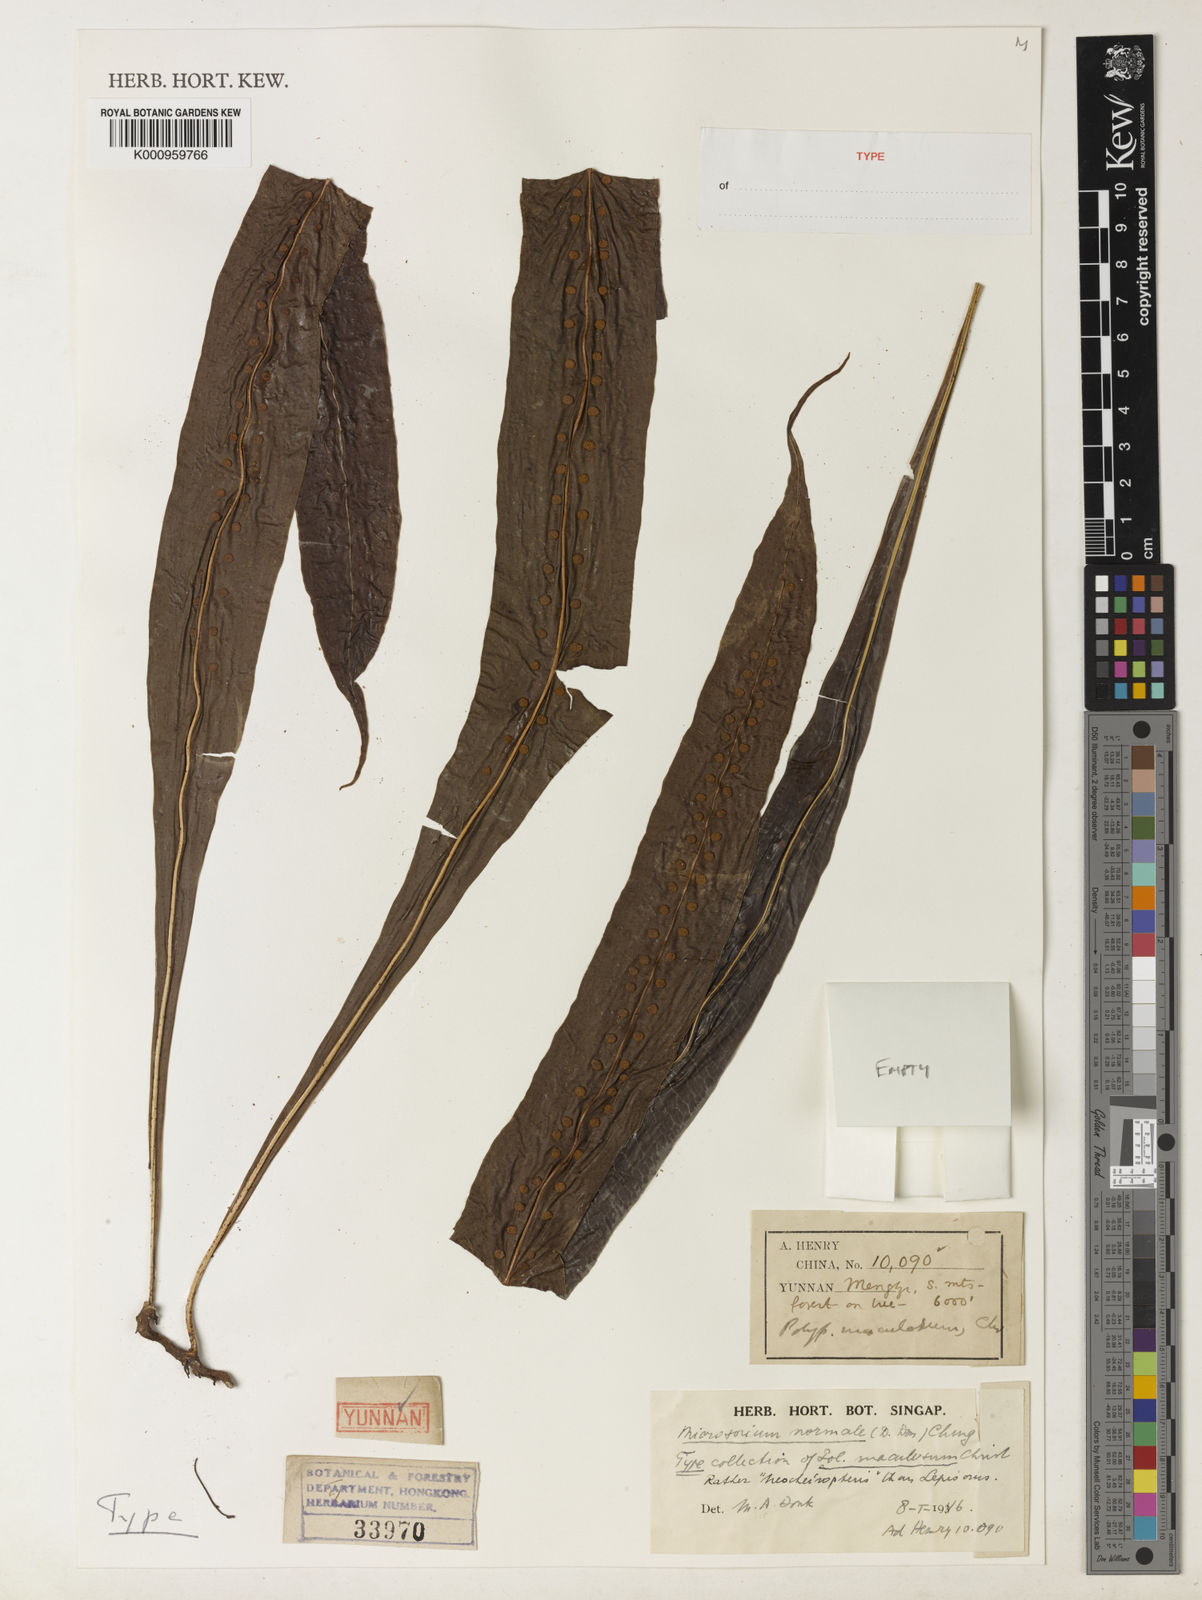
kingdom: Plantae
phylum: Tracheophyta
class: Polypodiopsida
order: Polypodiales
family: Polypodiaceae
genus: Lepisorus
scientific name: Lepisorus normalis
